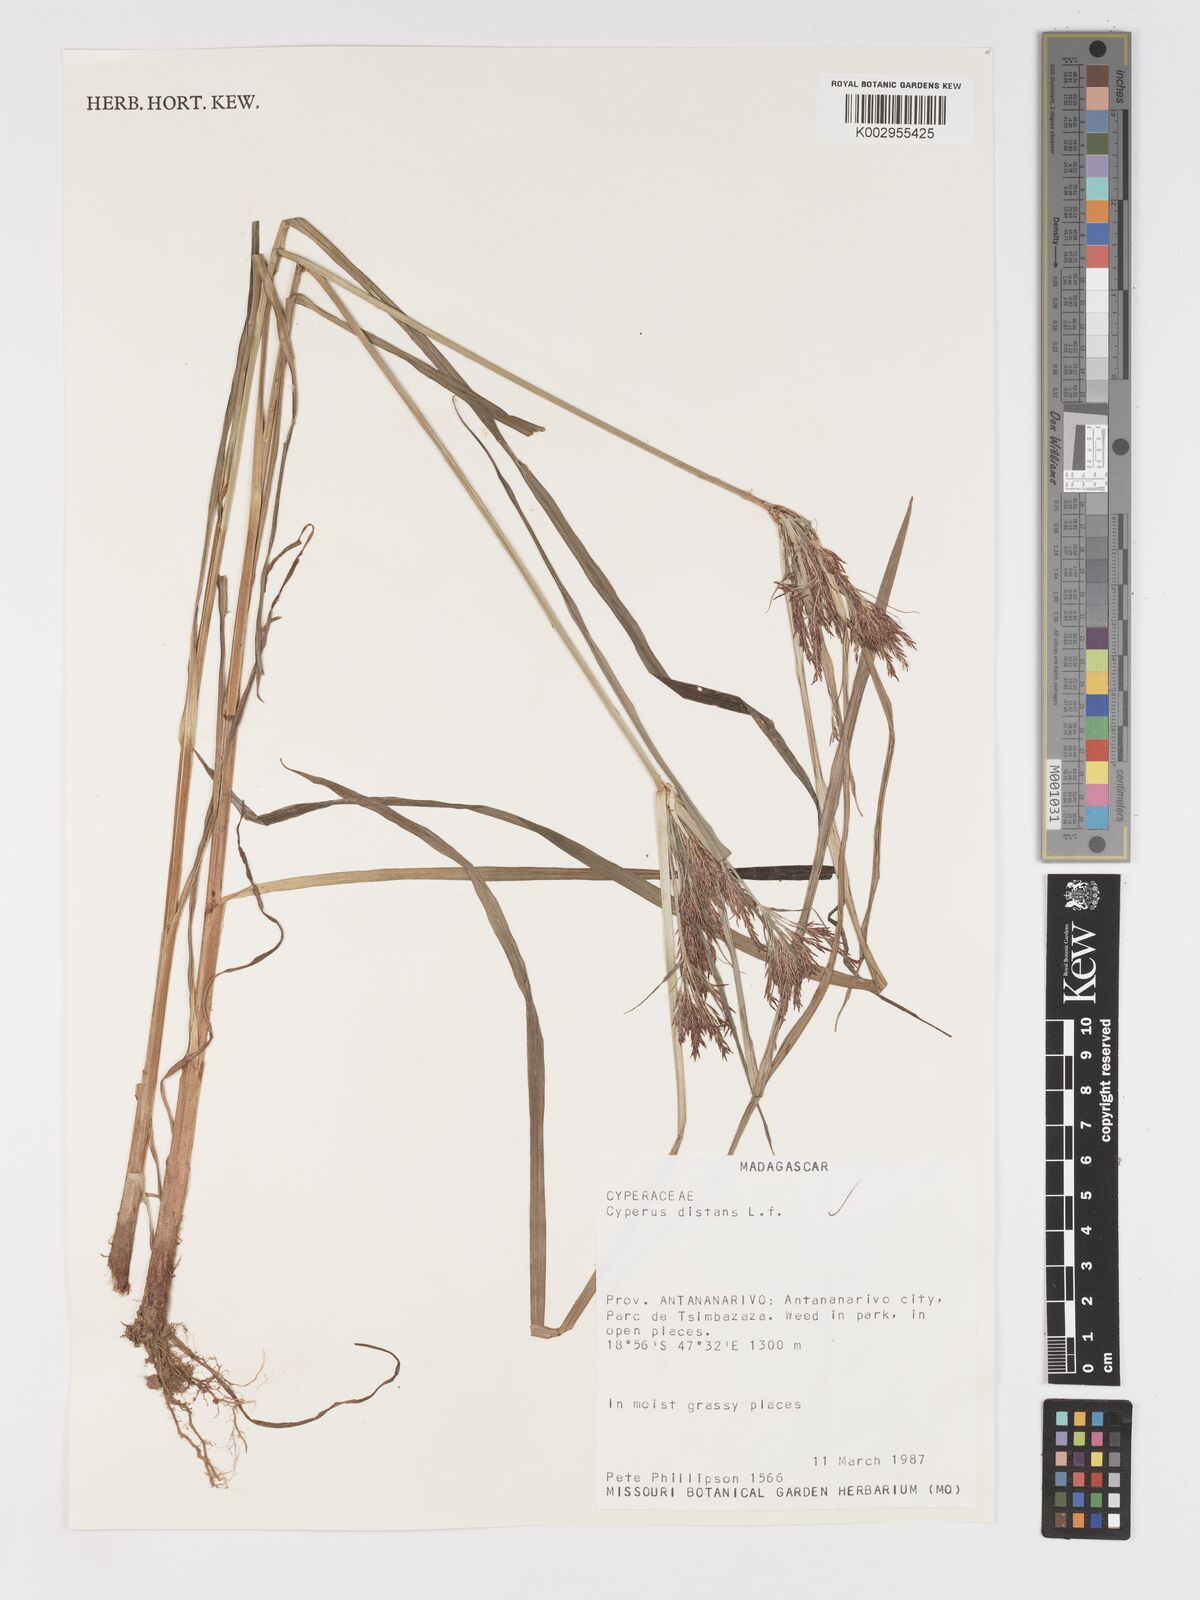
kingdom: Plantae
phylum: Tracheophyta
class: Liliopsida
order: Poales
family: Cyperaceae
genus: Cyperus
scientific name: Cyperus distans
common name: Slender cyperus
